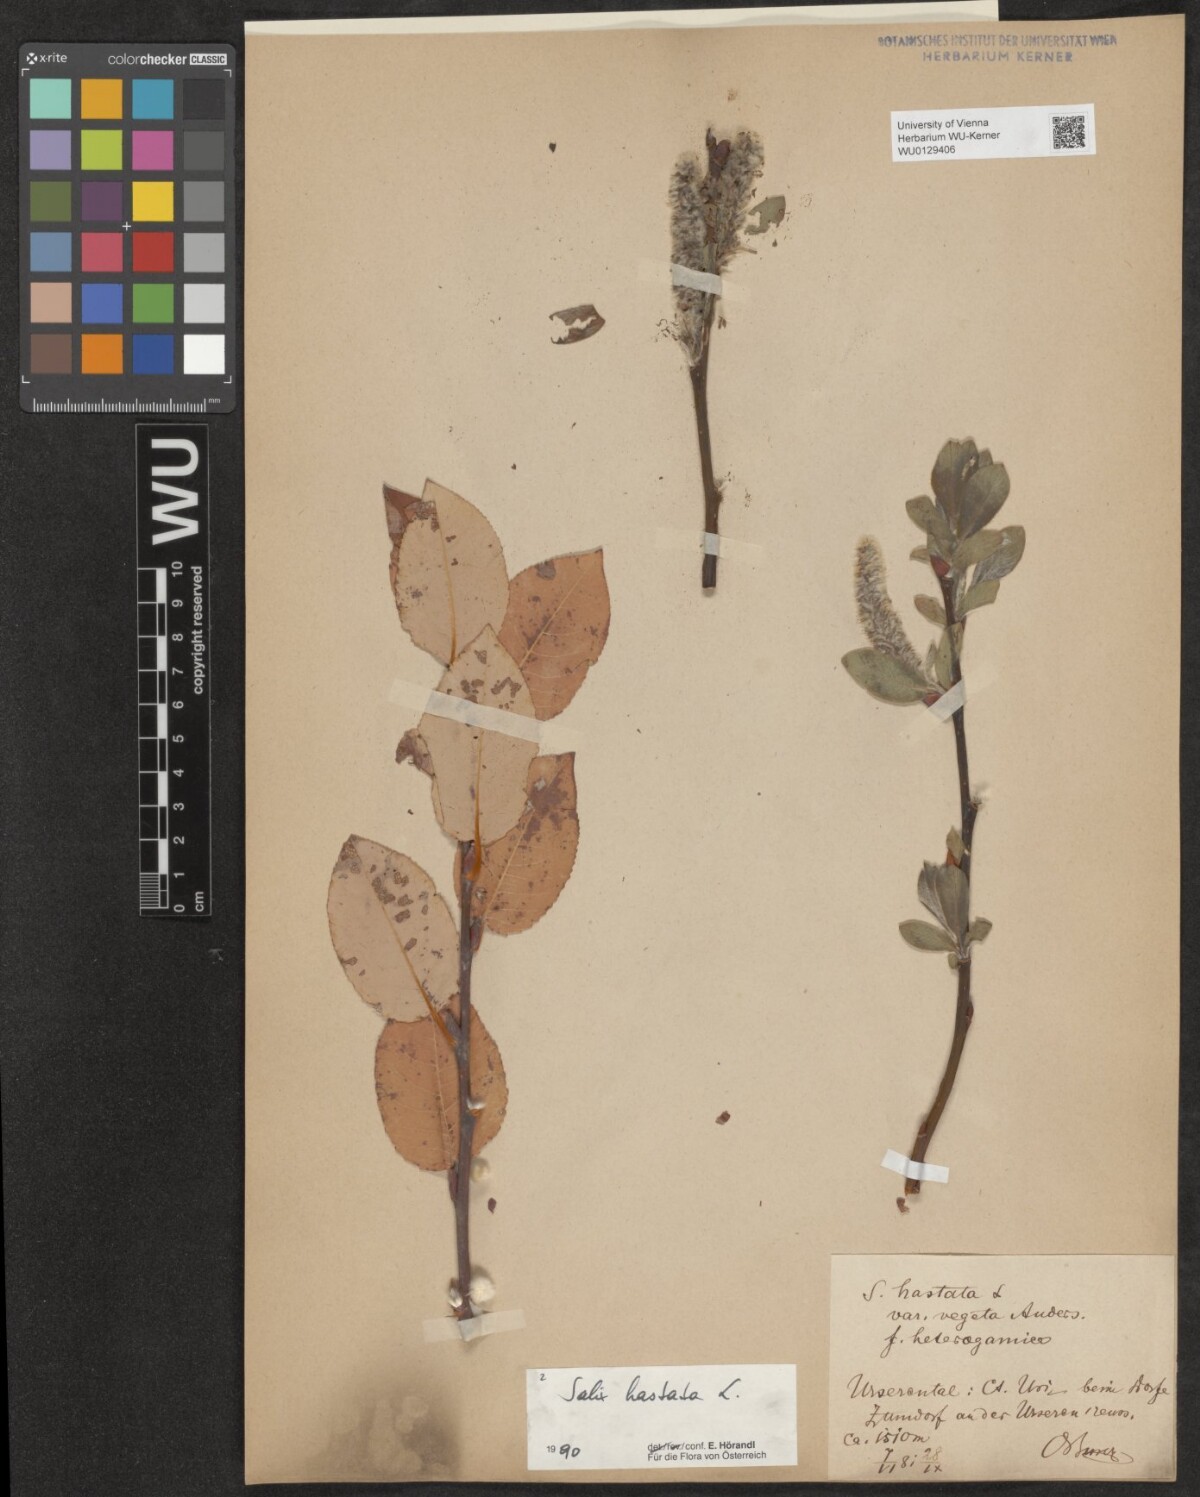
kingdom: Plantae
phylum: Tracheophyta
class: Magnoliopsida
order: Malpighiales
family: Salicaceae
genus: Salix
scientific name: Salix hastata
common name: Halberd willow
